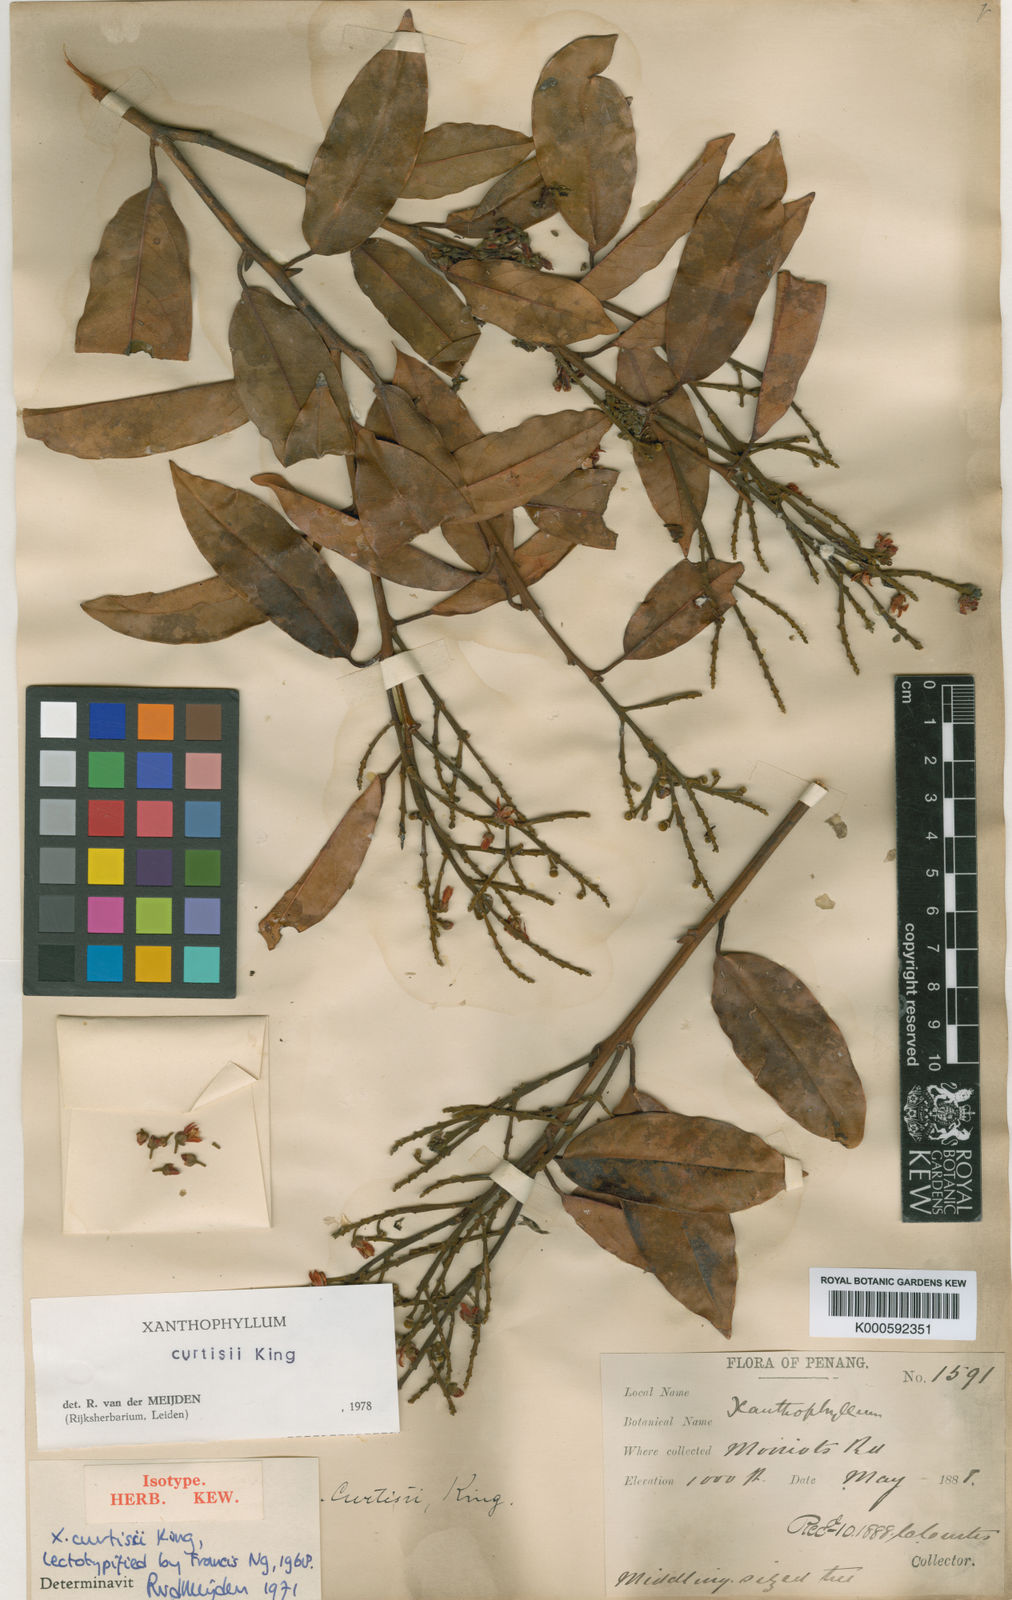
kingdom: Plantae
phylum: Tracheophyta
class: Magnoliopsida
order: Fabales
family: Polygalaceae
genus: Xanthophyllum
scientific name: Xanthophyllum vitellinum
